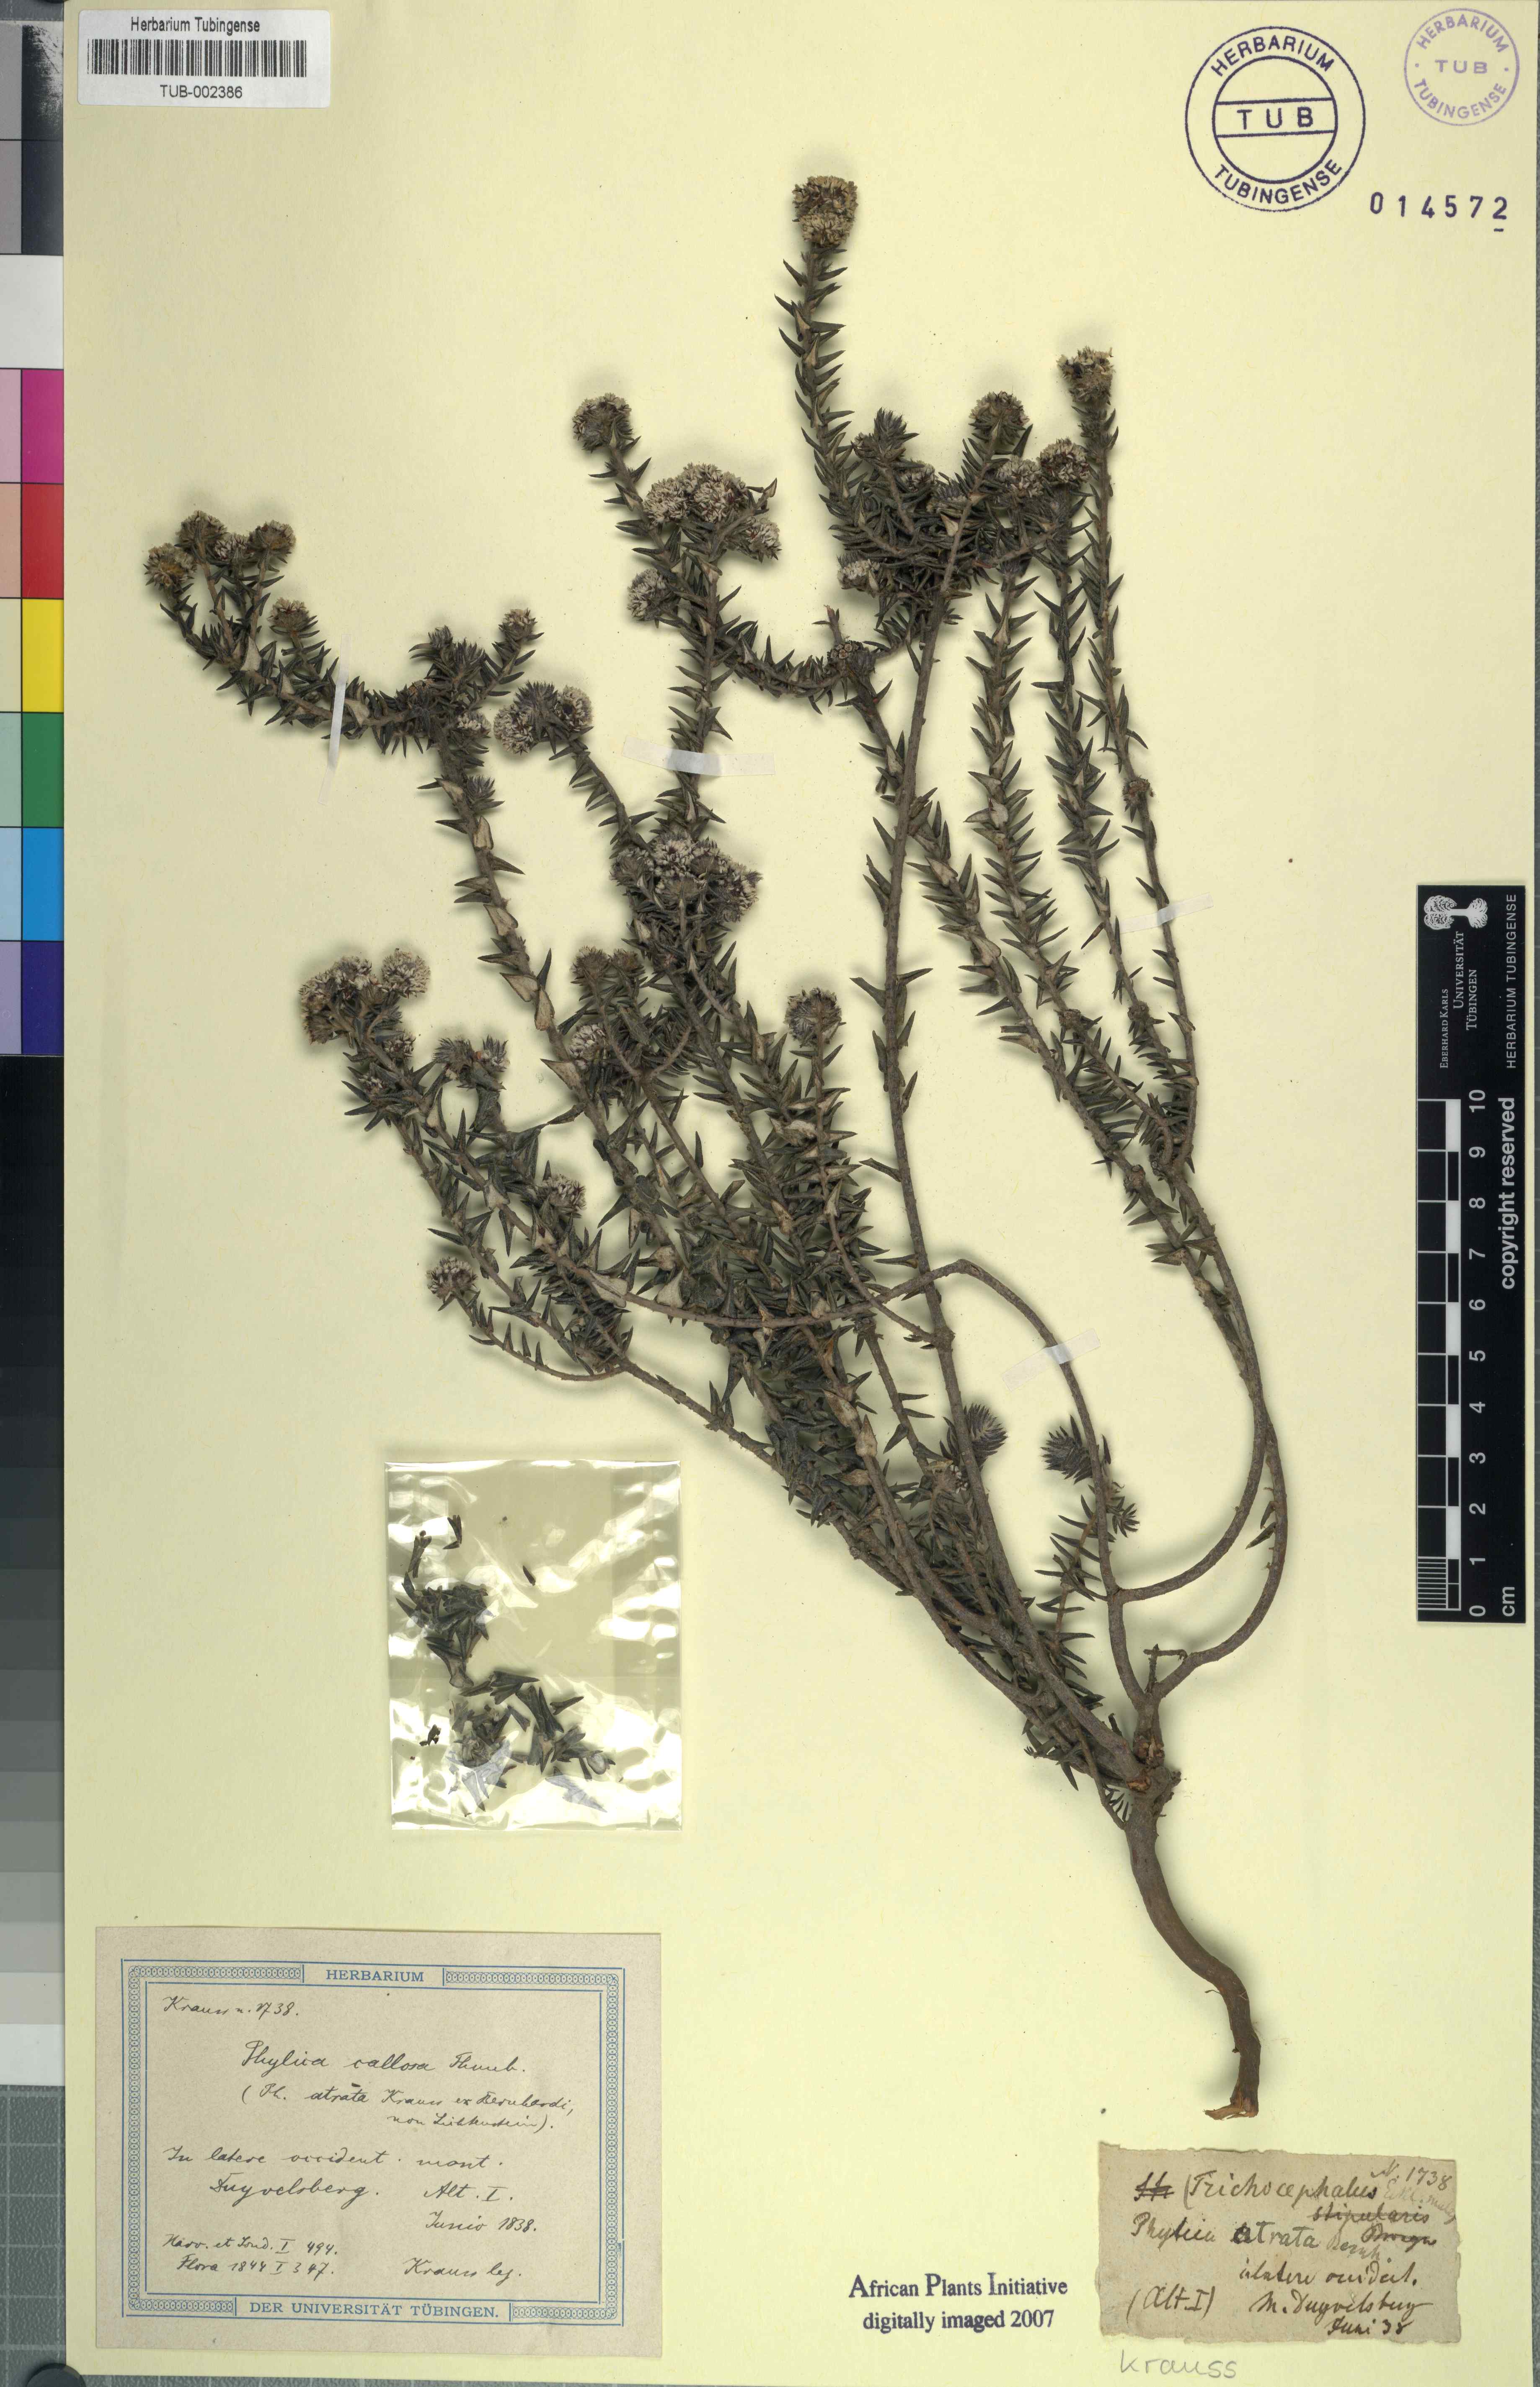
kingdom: Plantae
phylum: Tracheophyta
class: Magnoliopsida
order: Rosales
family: Rhamnaceae
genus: Phylica
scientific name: Phylica callosa
